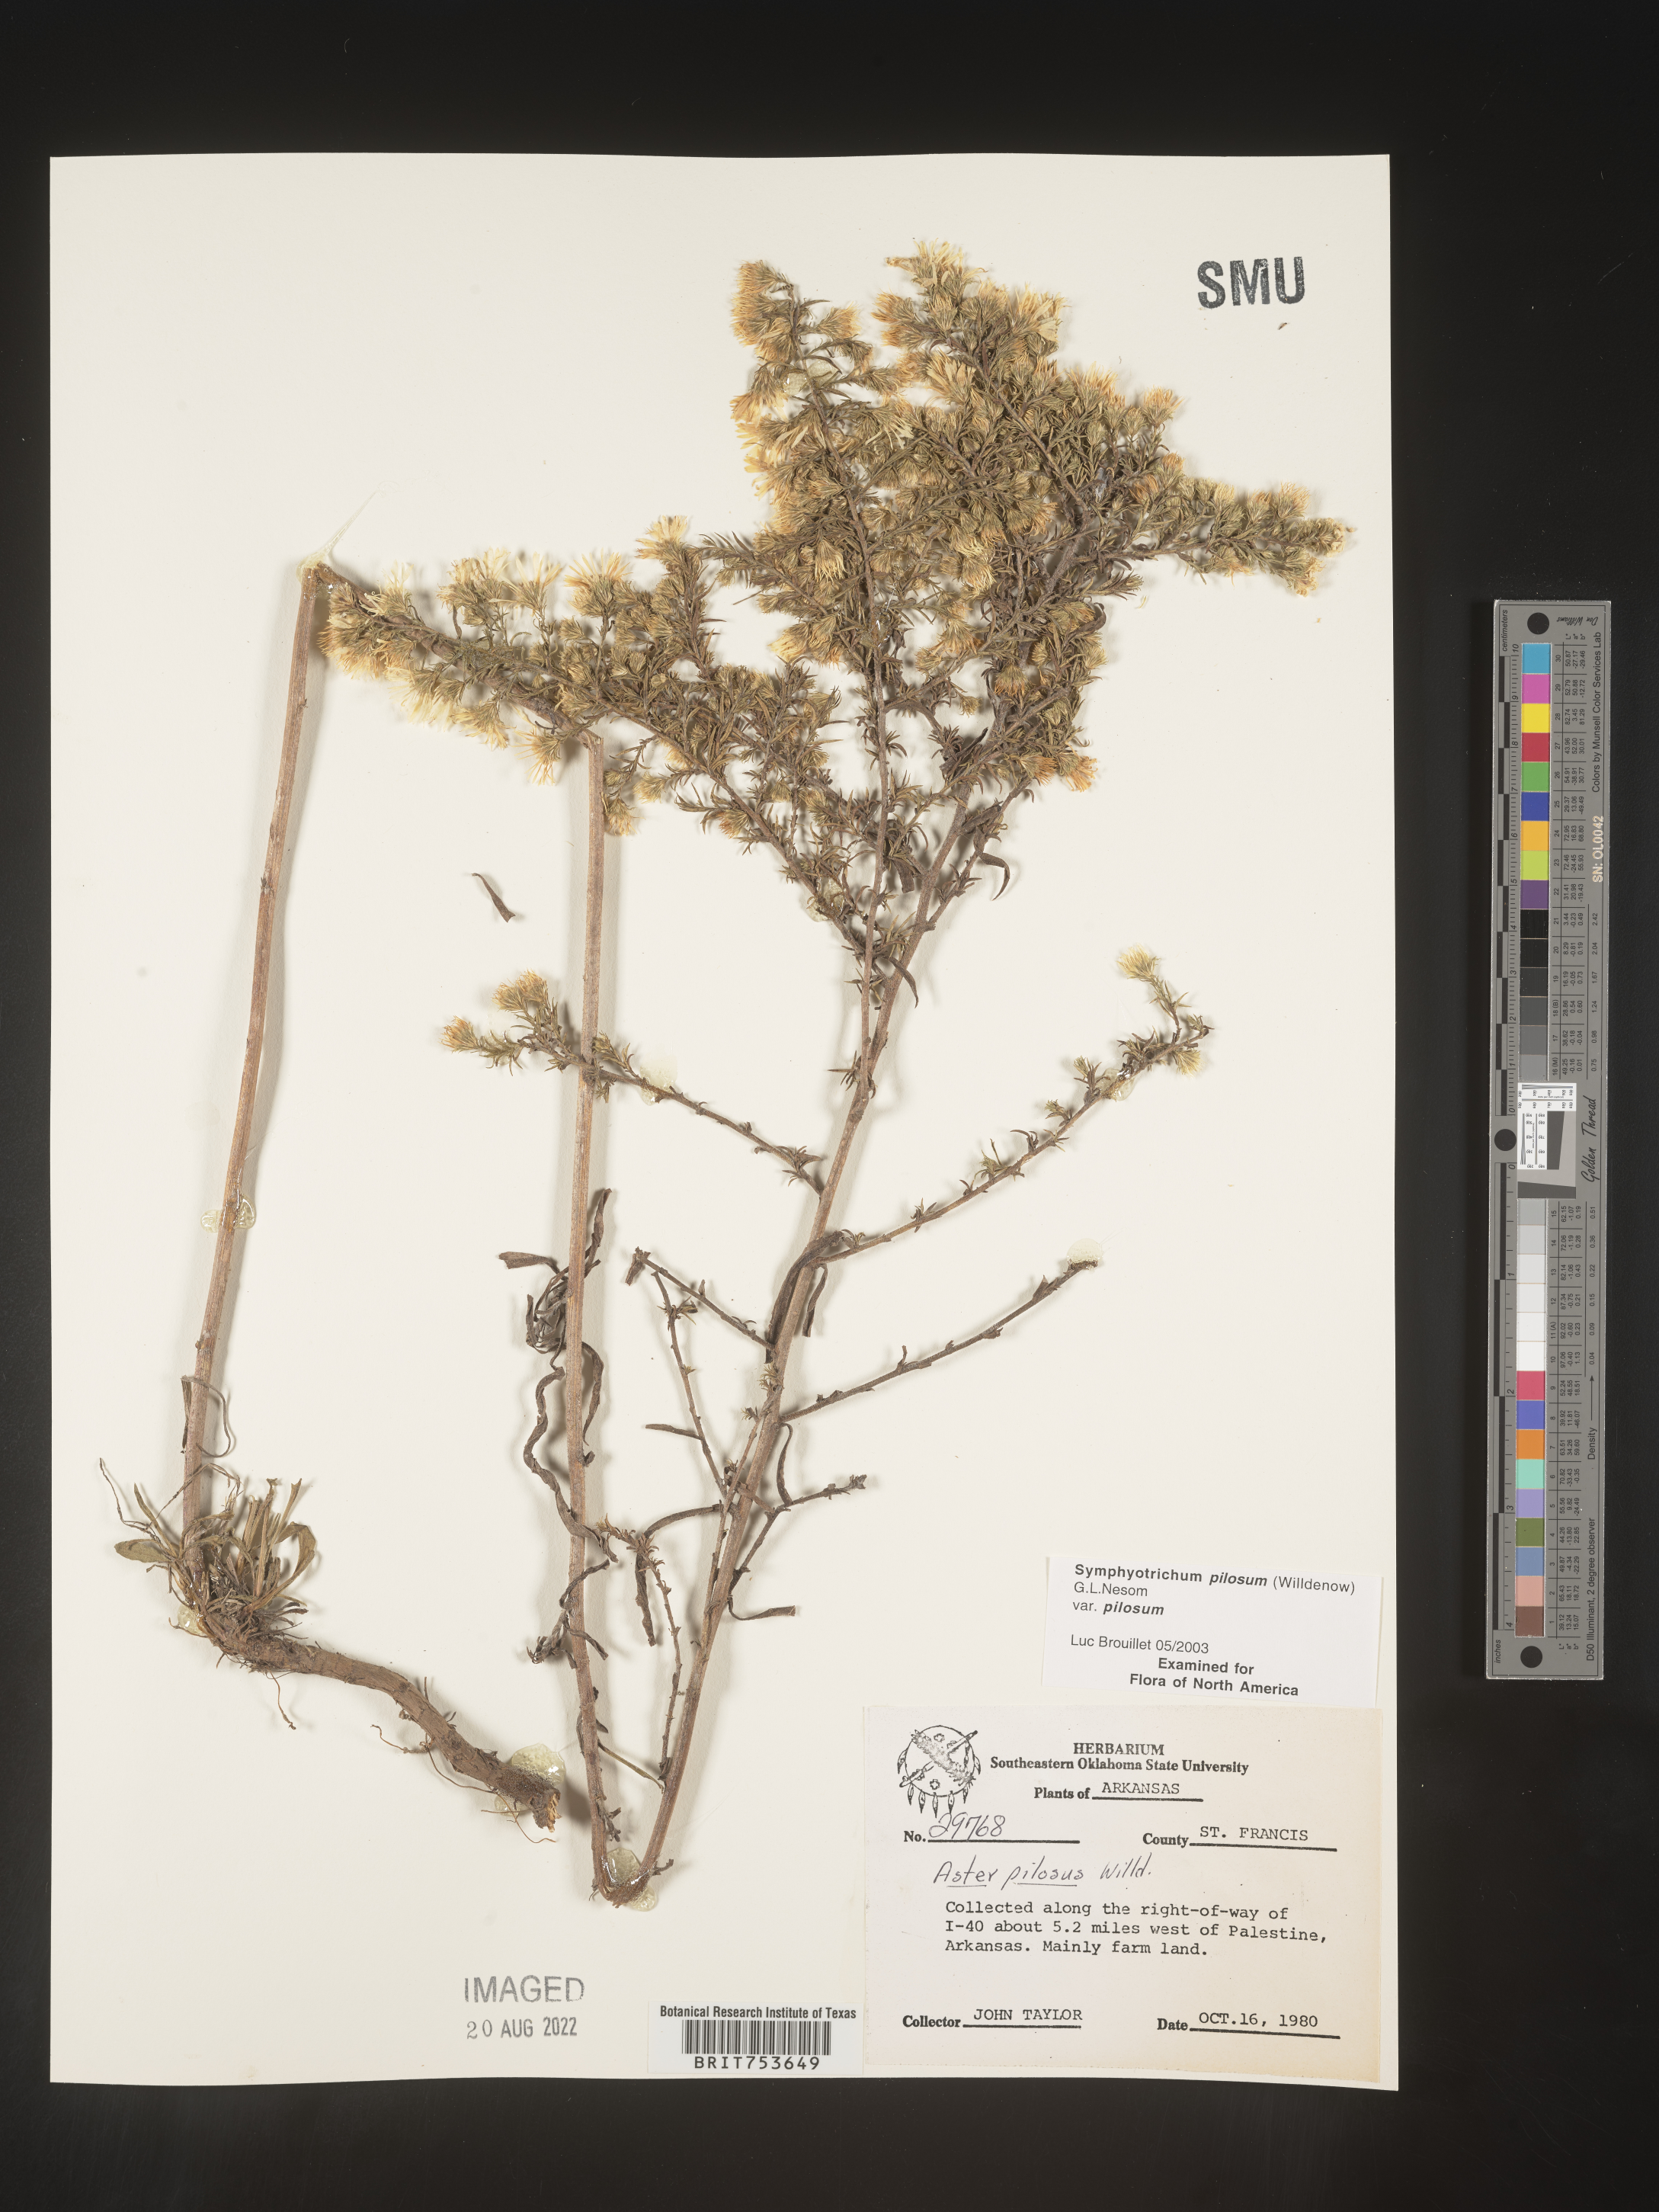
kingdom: Plantae
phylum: Tracheophyta
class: Magnoliopsida
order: Asterales
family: Asteraceae
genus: Symphyotrichum
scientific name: Symphyotrichum pilosum
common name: Awl aster
